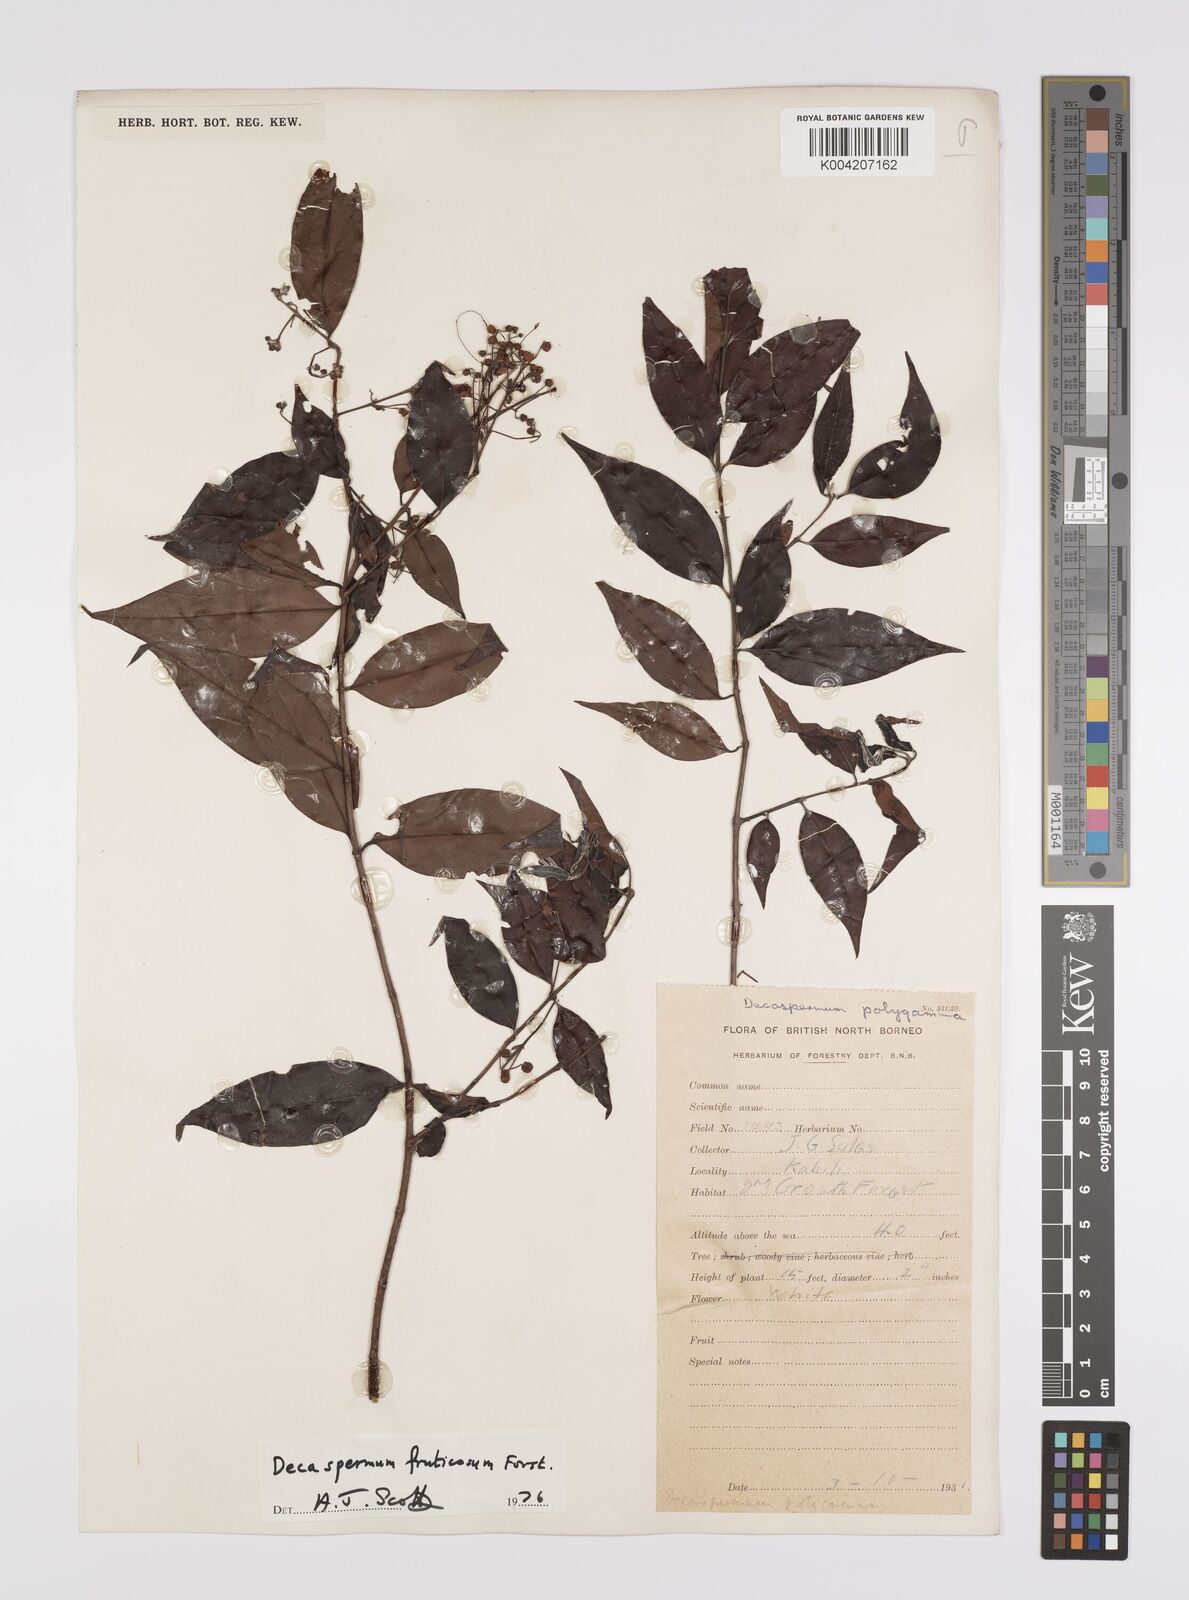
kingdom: Plantae
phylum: Tracheophyta
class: Magnoliopsida
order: Myrtales
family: Myrtaceae
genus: Decaspermum
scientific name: Decaspermum fruticosum
